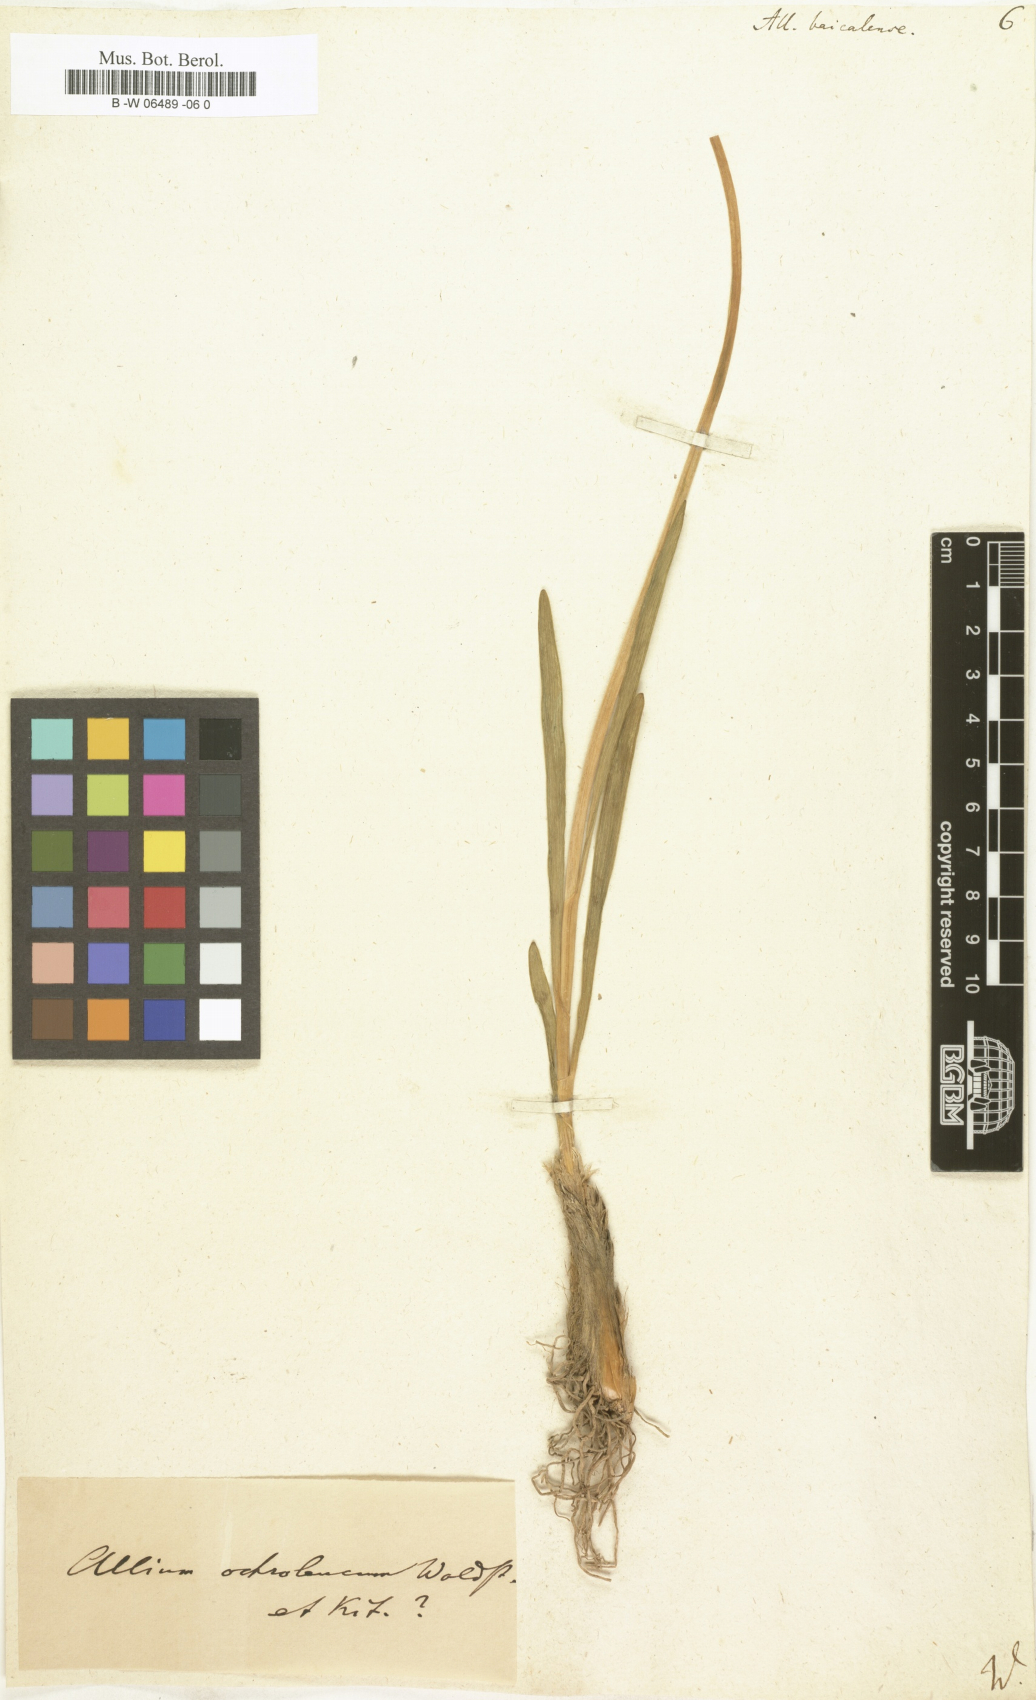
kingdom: Plantae
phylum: Tracheophyta
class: Liliopsida
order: Asparagales
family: Amaryllidaceae
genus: Allium
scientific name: Allium senescens
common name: German garlic
